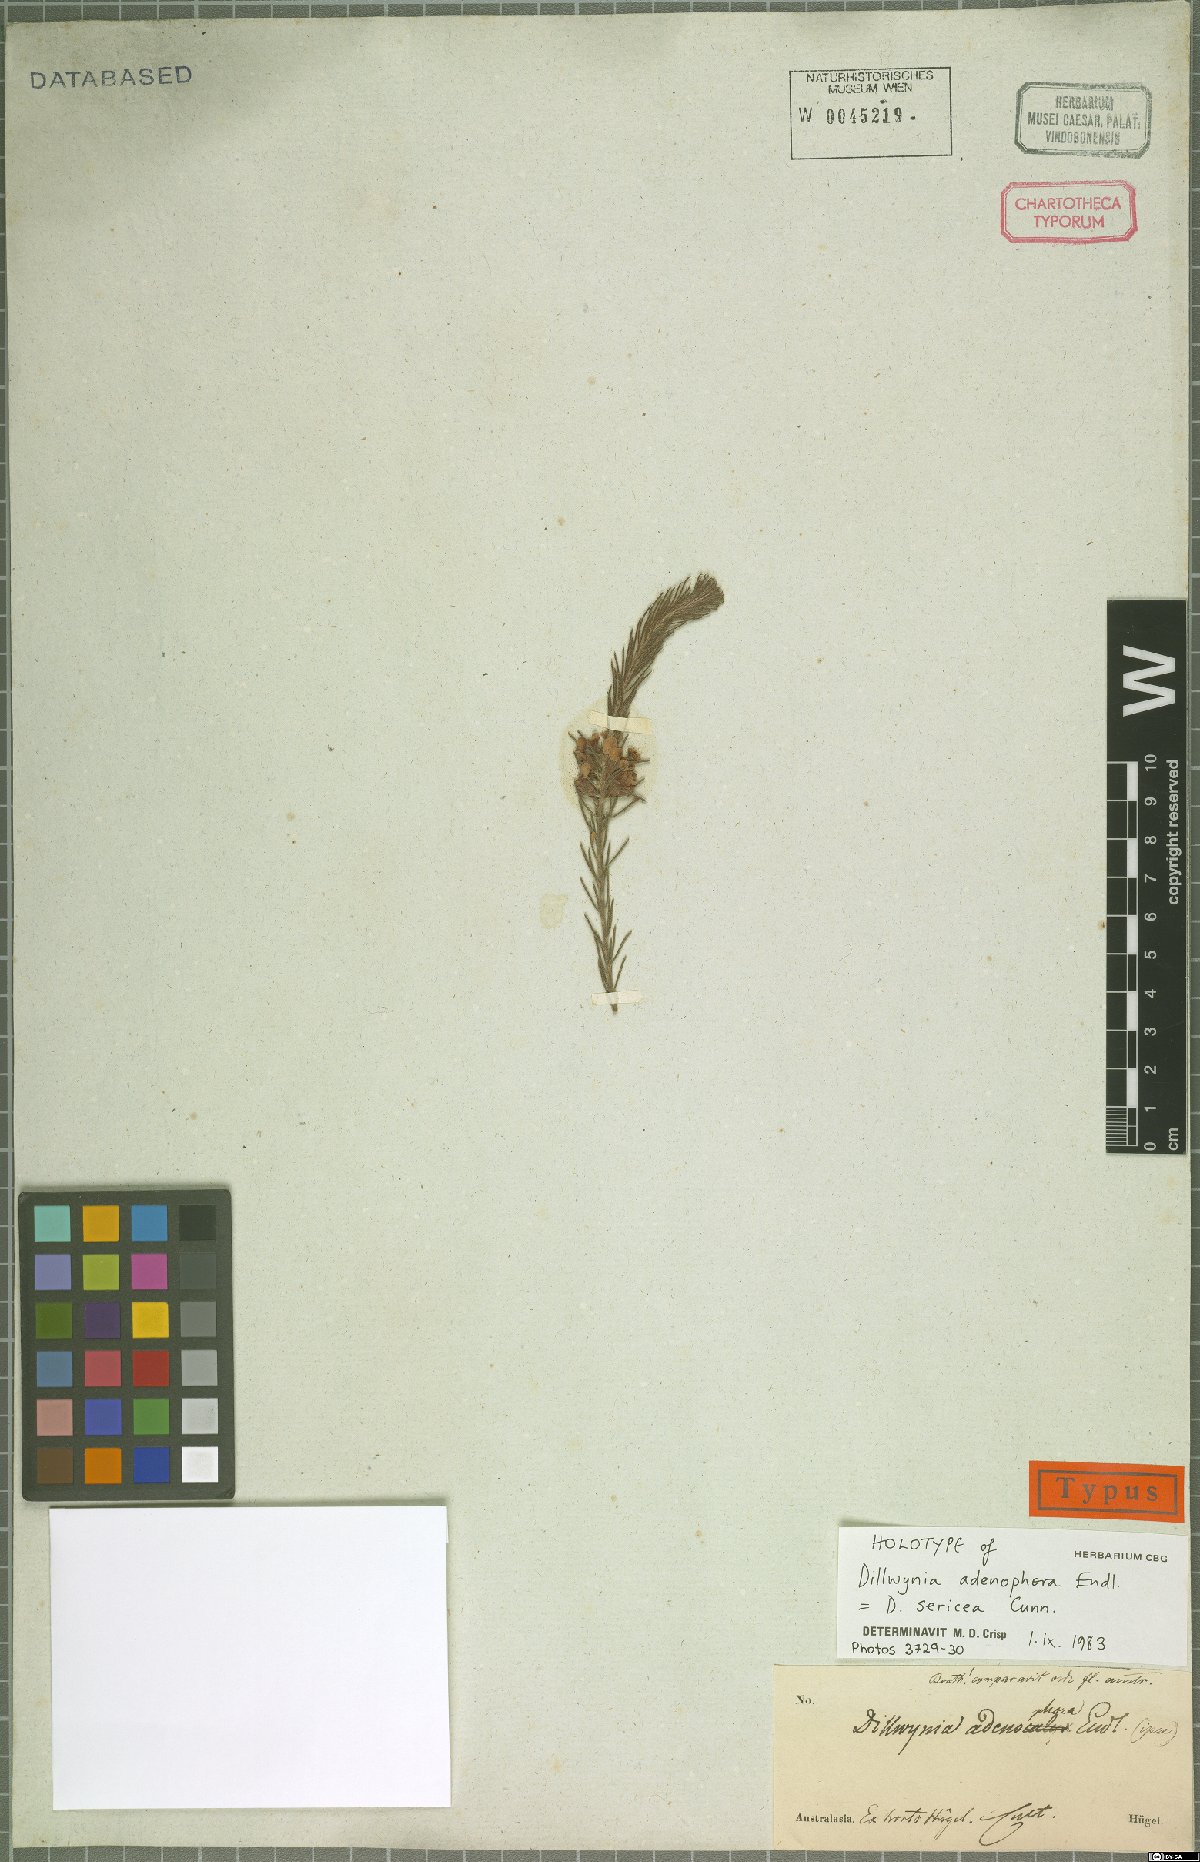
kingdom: Plantae
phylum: Tracheophyta
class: Magnoliopsida
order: Fabales
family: Fabaceae
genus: Dillwynia
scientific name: Dillwynia sericea
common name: Showy parrot-pea
